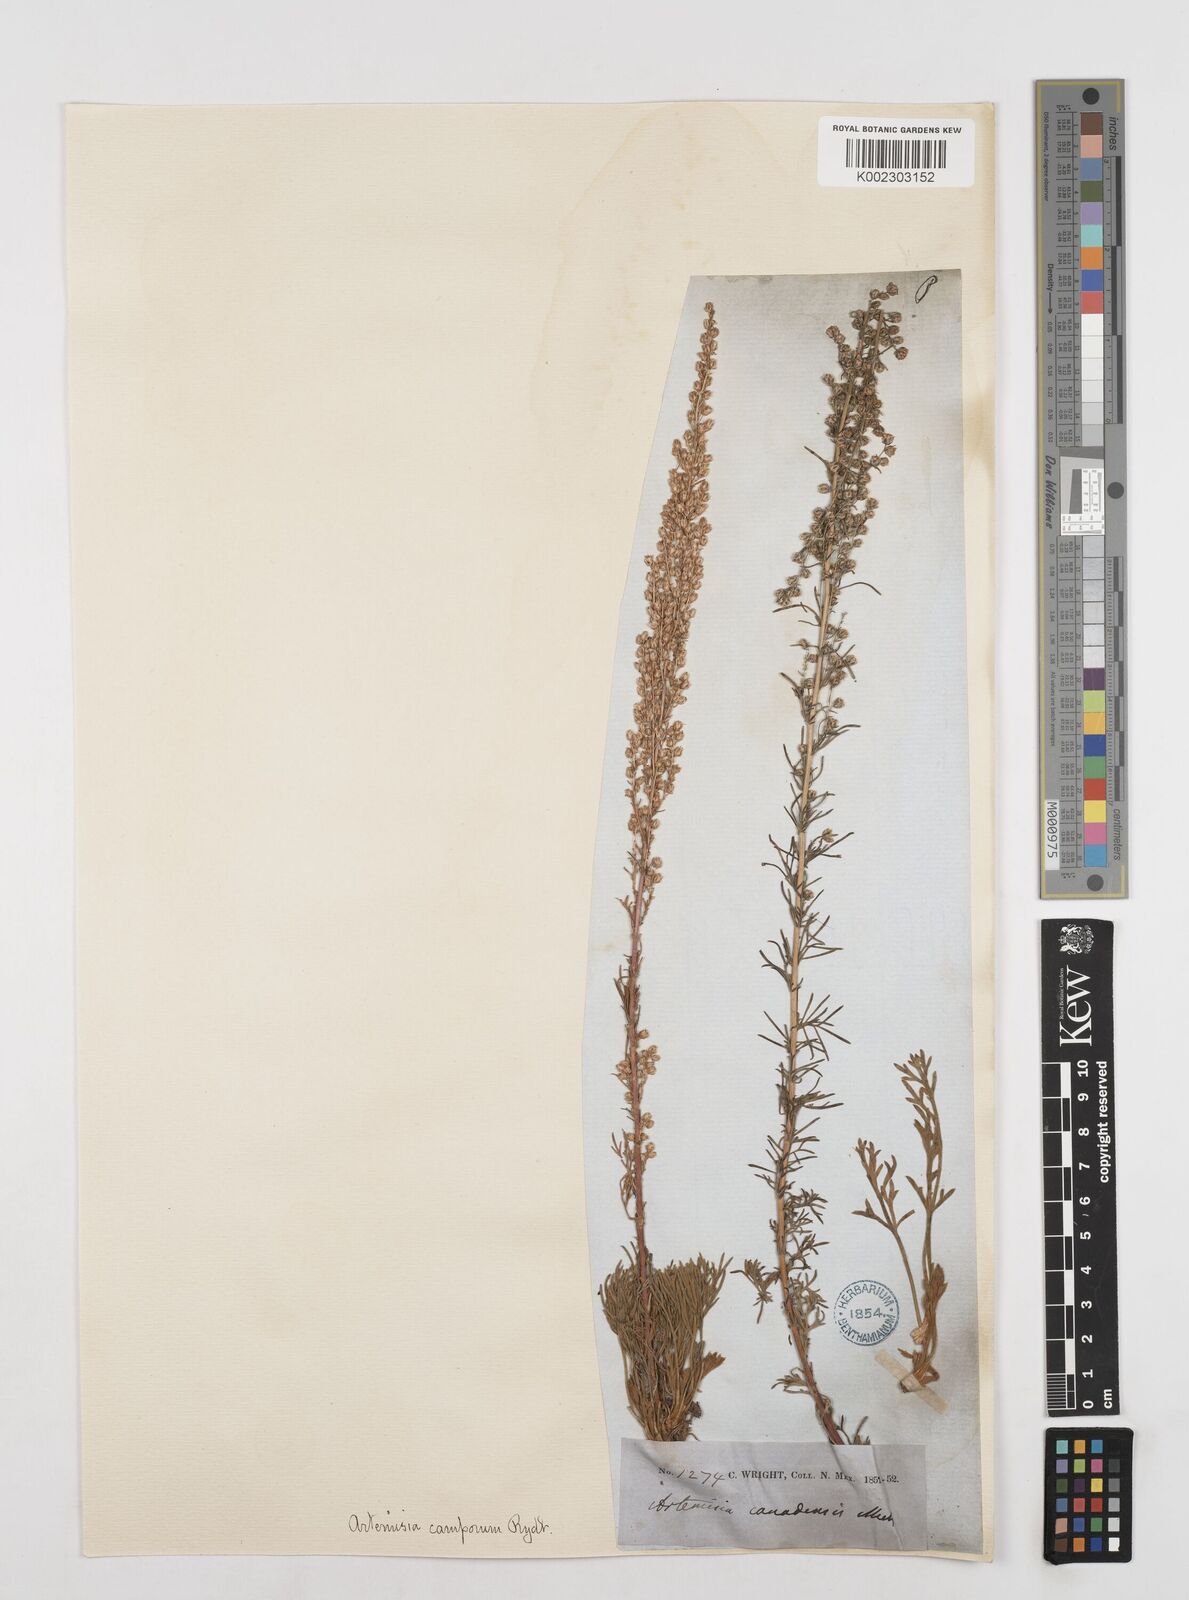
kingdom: Plantae
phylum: Tracheophyta
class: Magnoliopsida
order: Asterales
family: Asteraceae
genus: Artemisia
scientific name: Artemisia campestris
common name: Field wormwood
